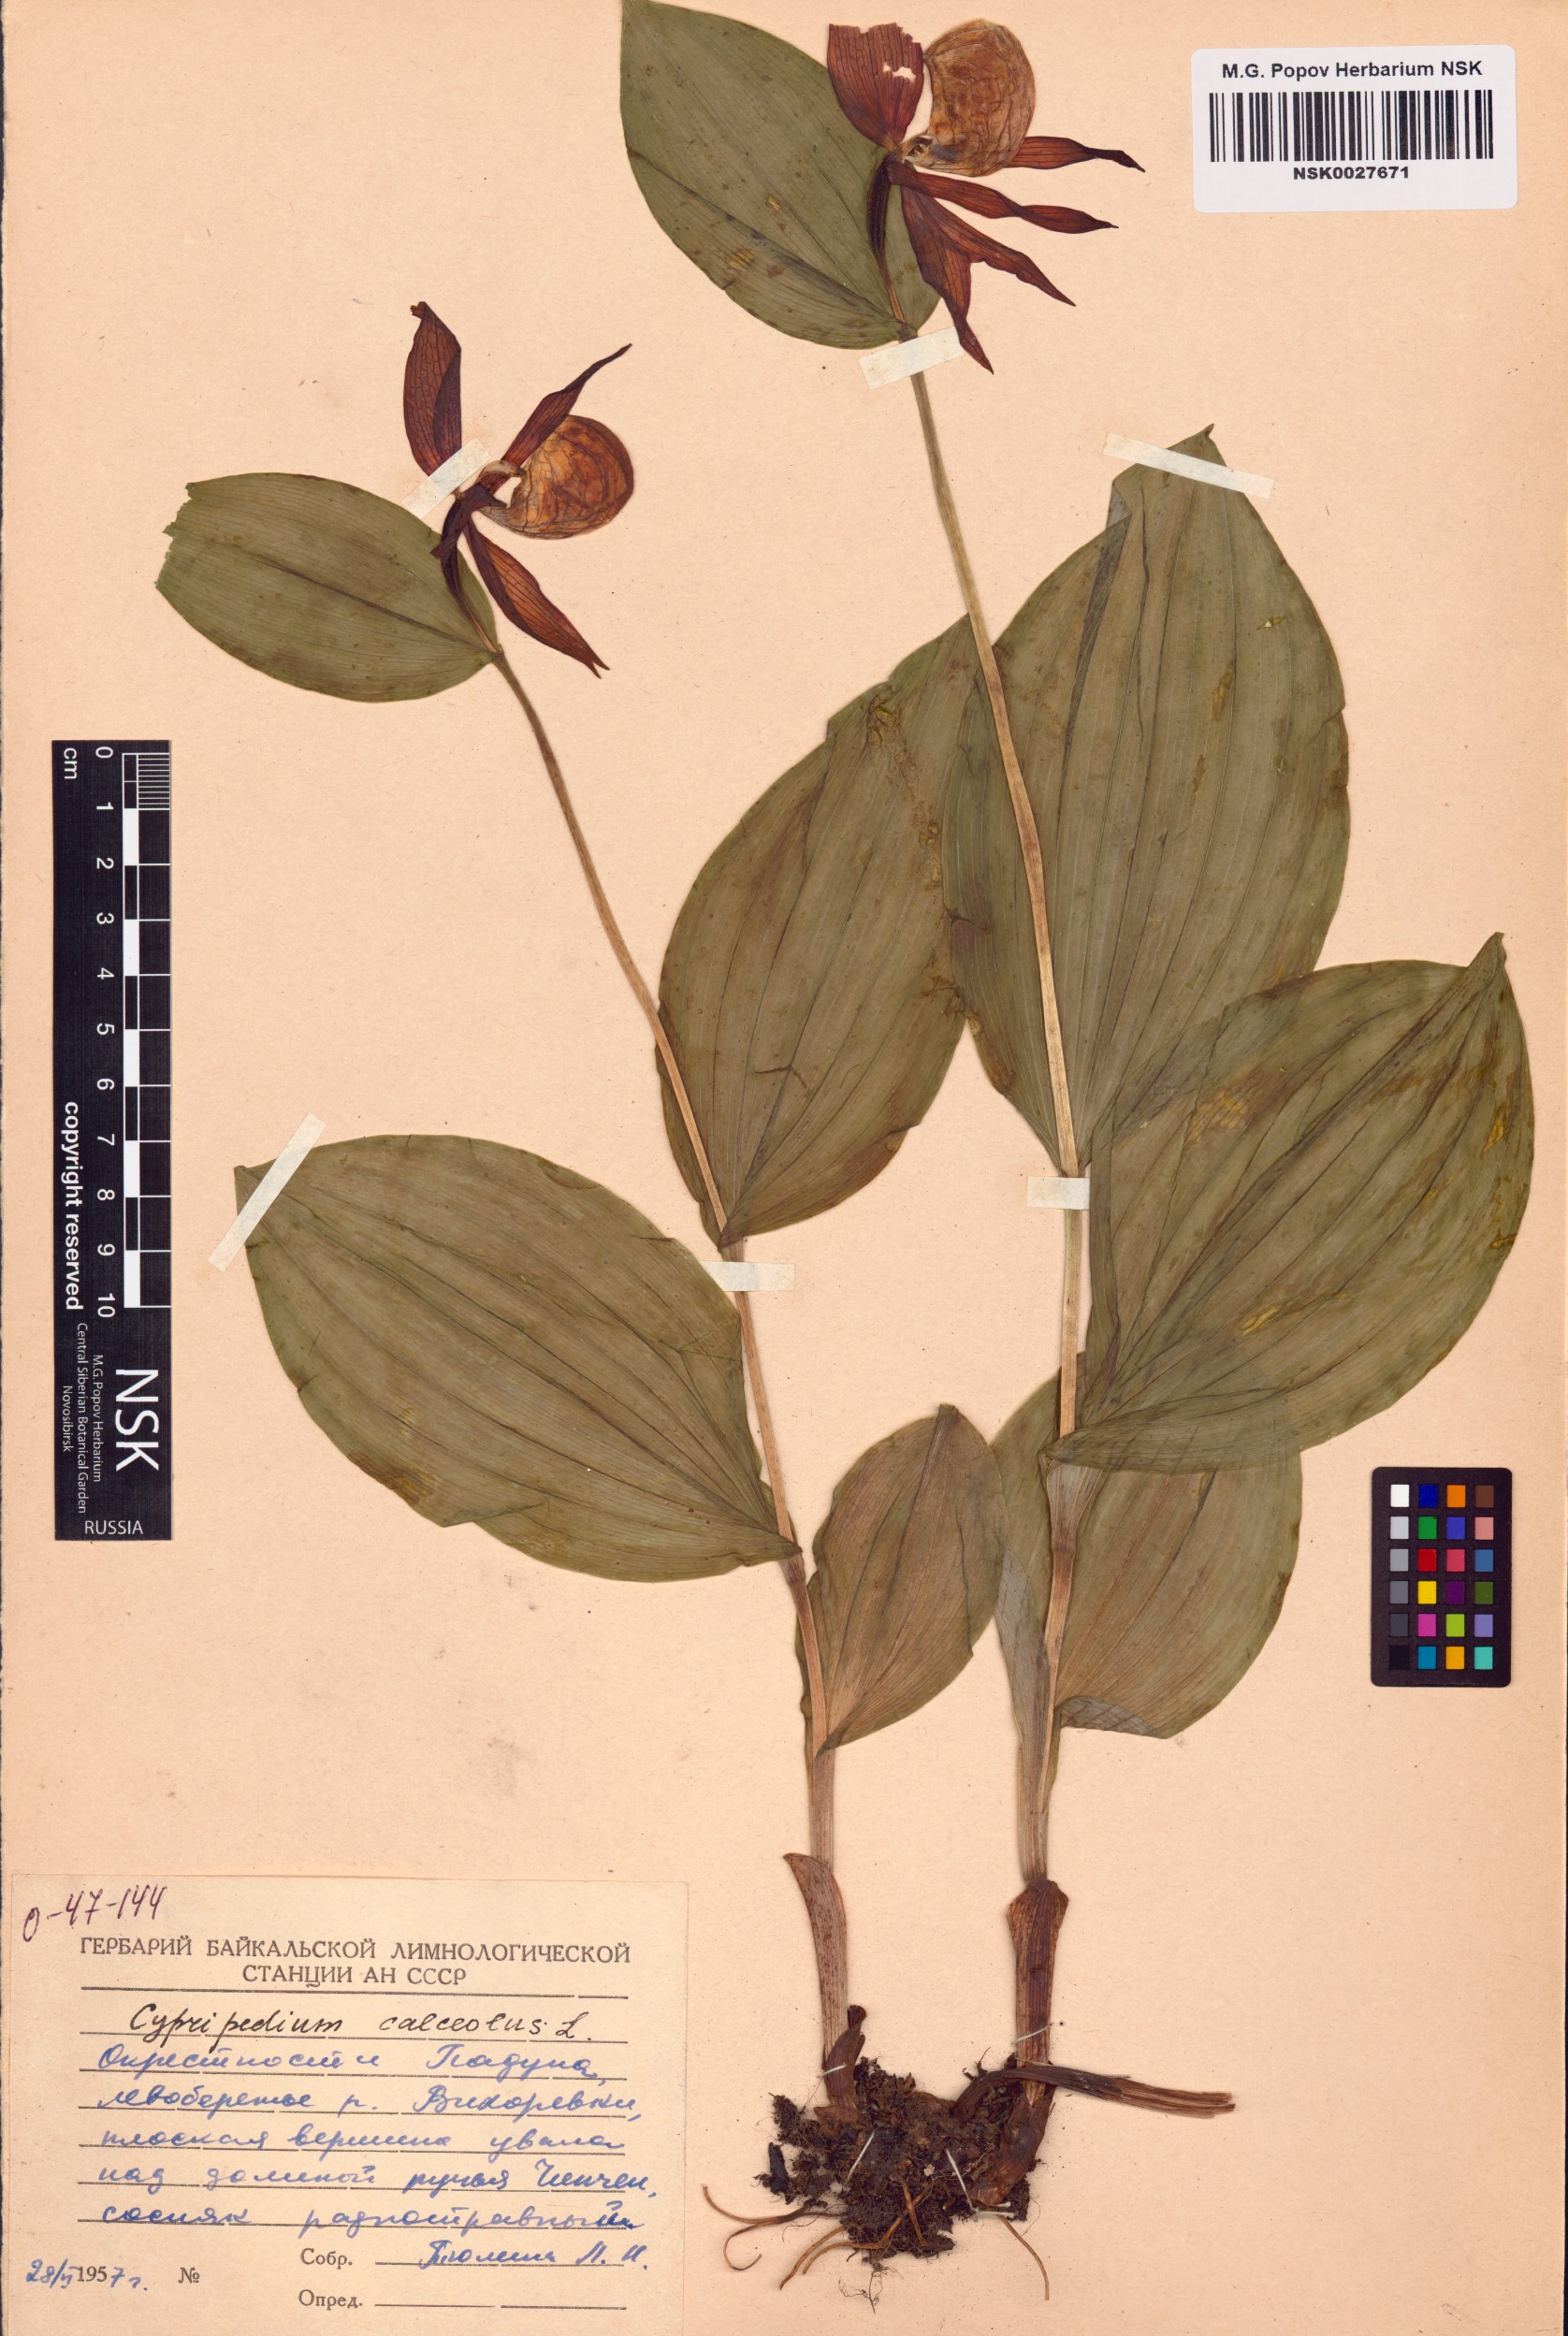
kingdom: Plantae
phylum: Tracheophyta
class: Liliopsida
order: Asparagales
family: Orchidaceae
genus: Cypripedium
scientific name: Cypripedium calceolus
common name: Lady's-slipper
